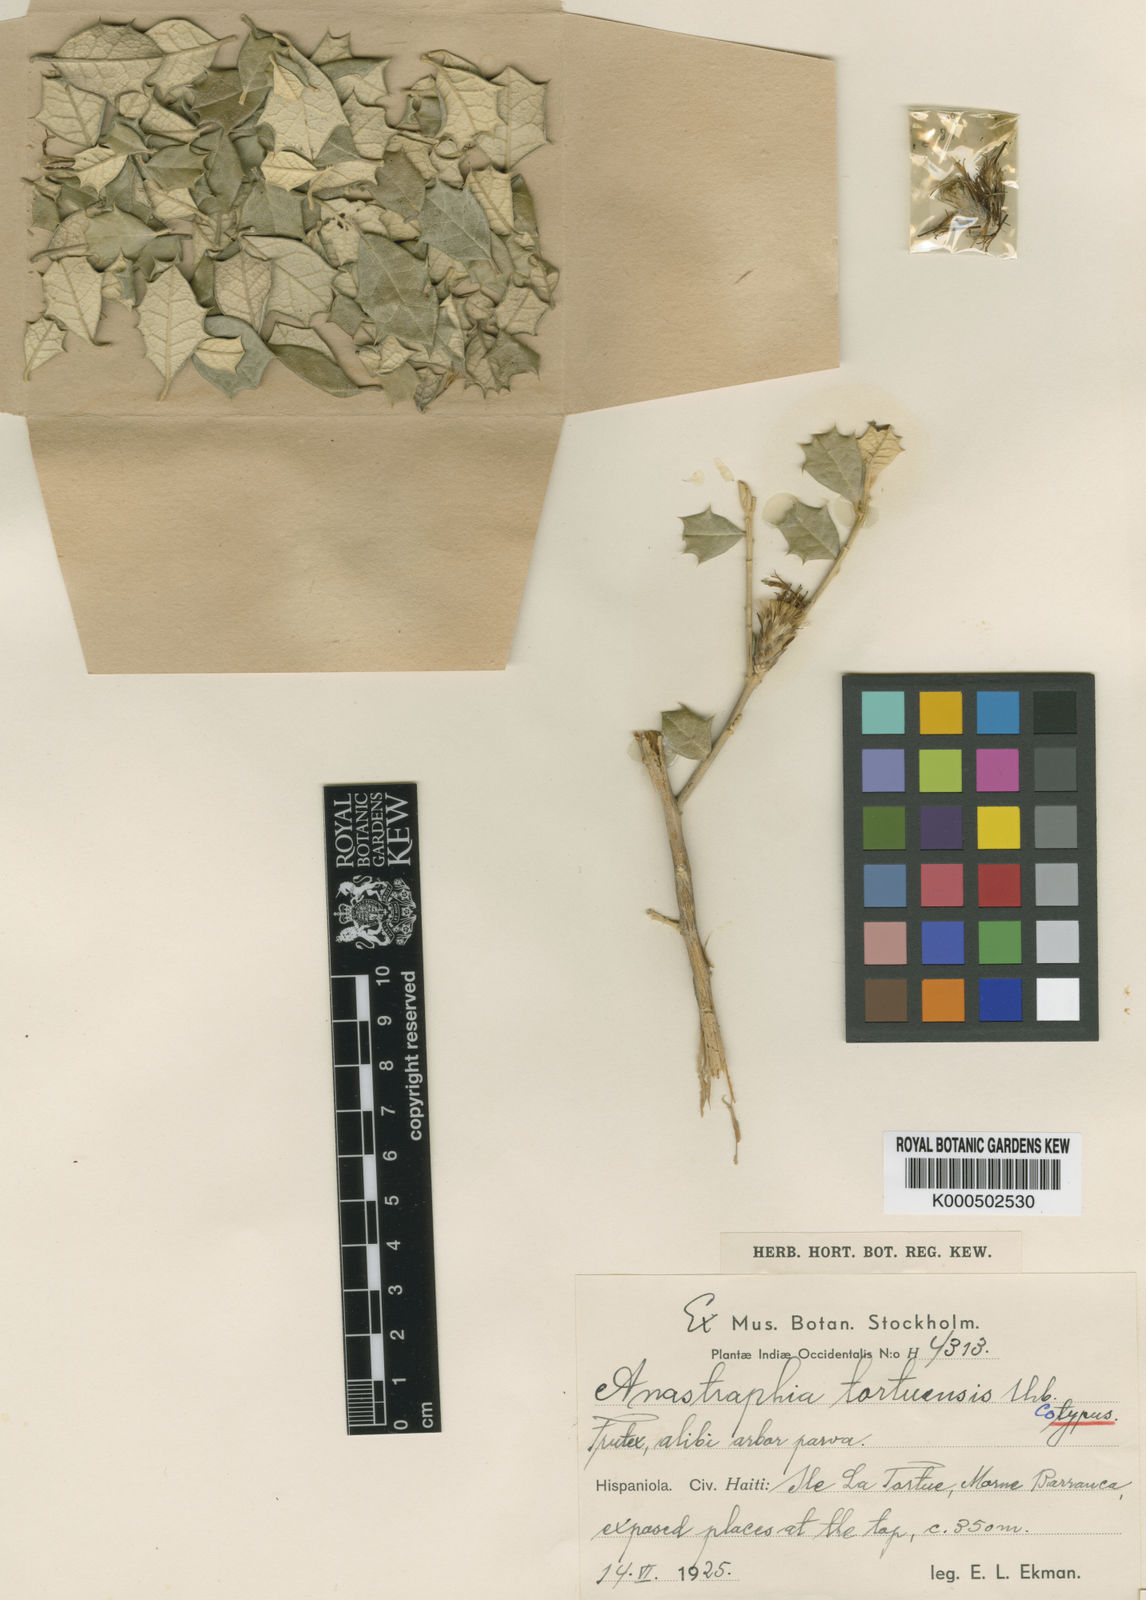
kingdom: Plantae
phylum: Tracheophyta
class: Magnoliopsida
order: Asterales
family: Asteraceae
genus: Anastraphia
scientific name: Anastraphia tortuensis
